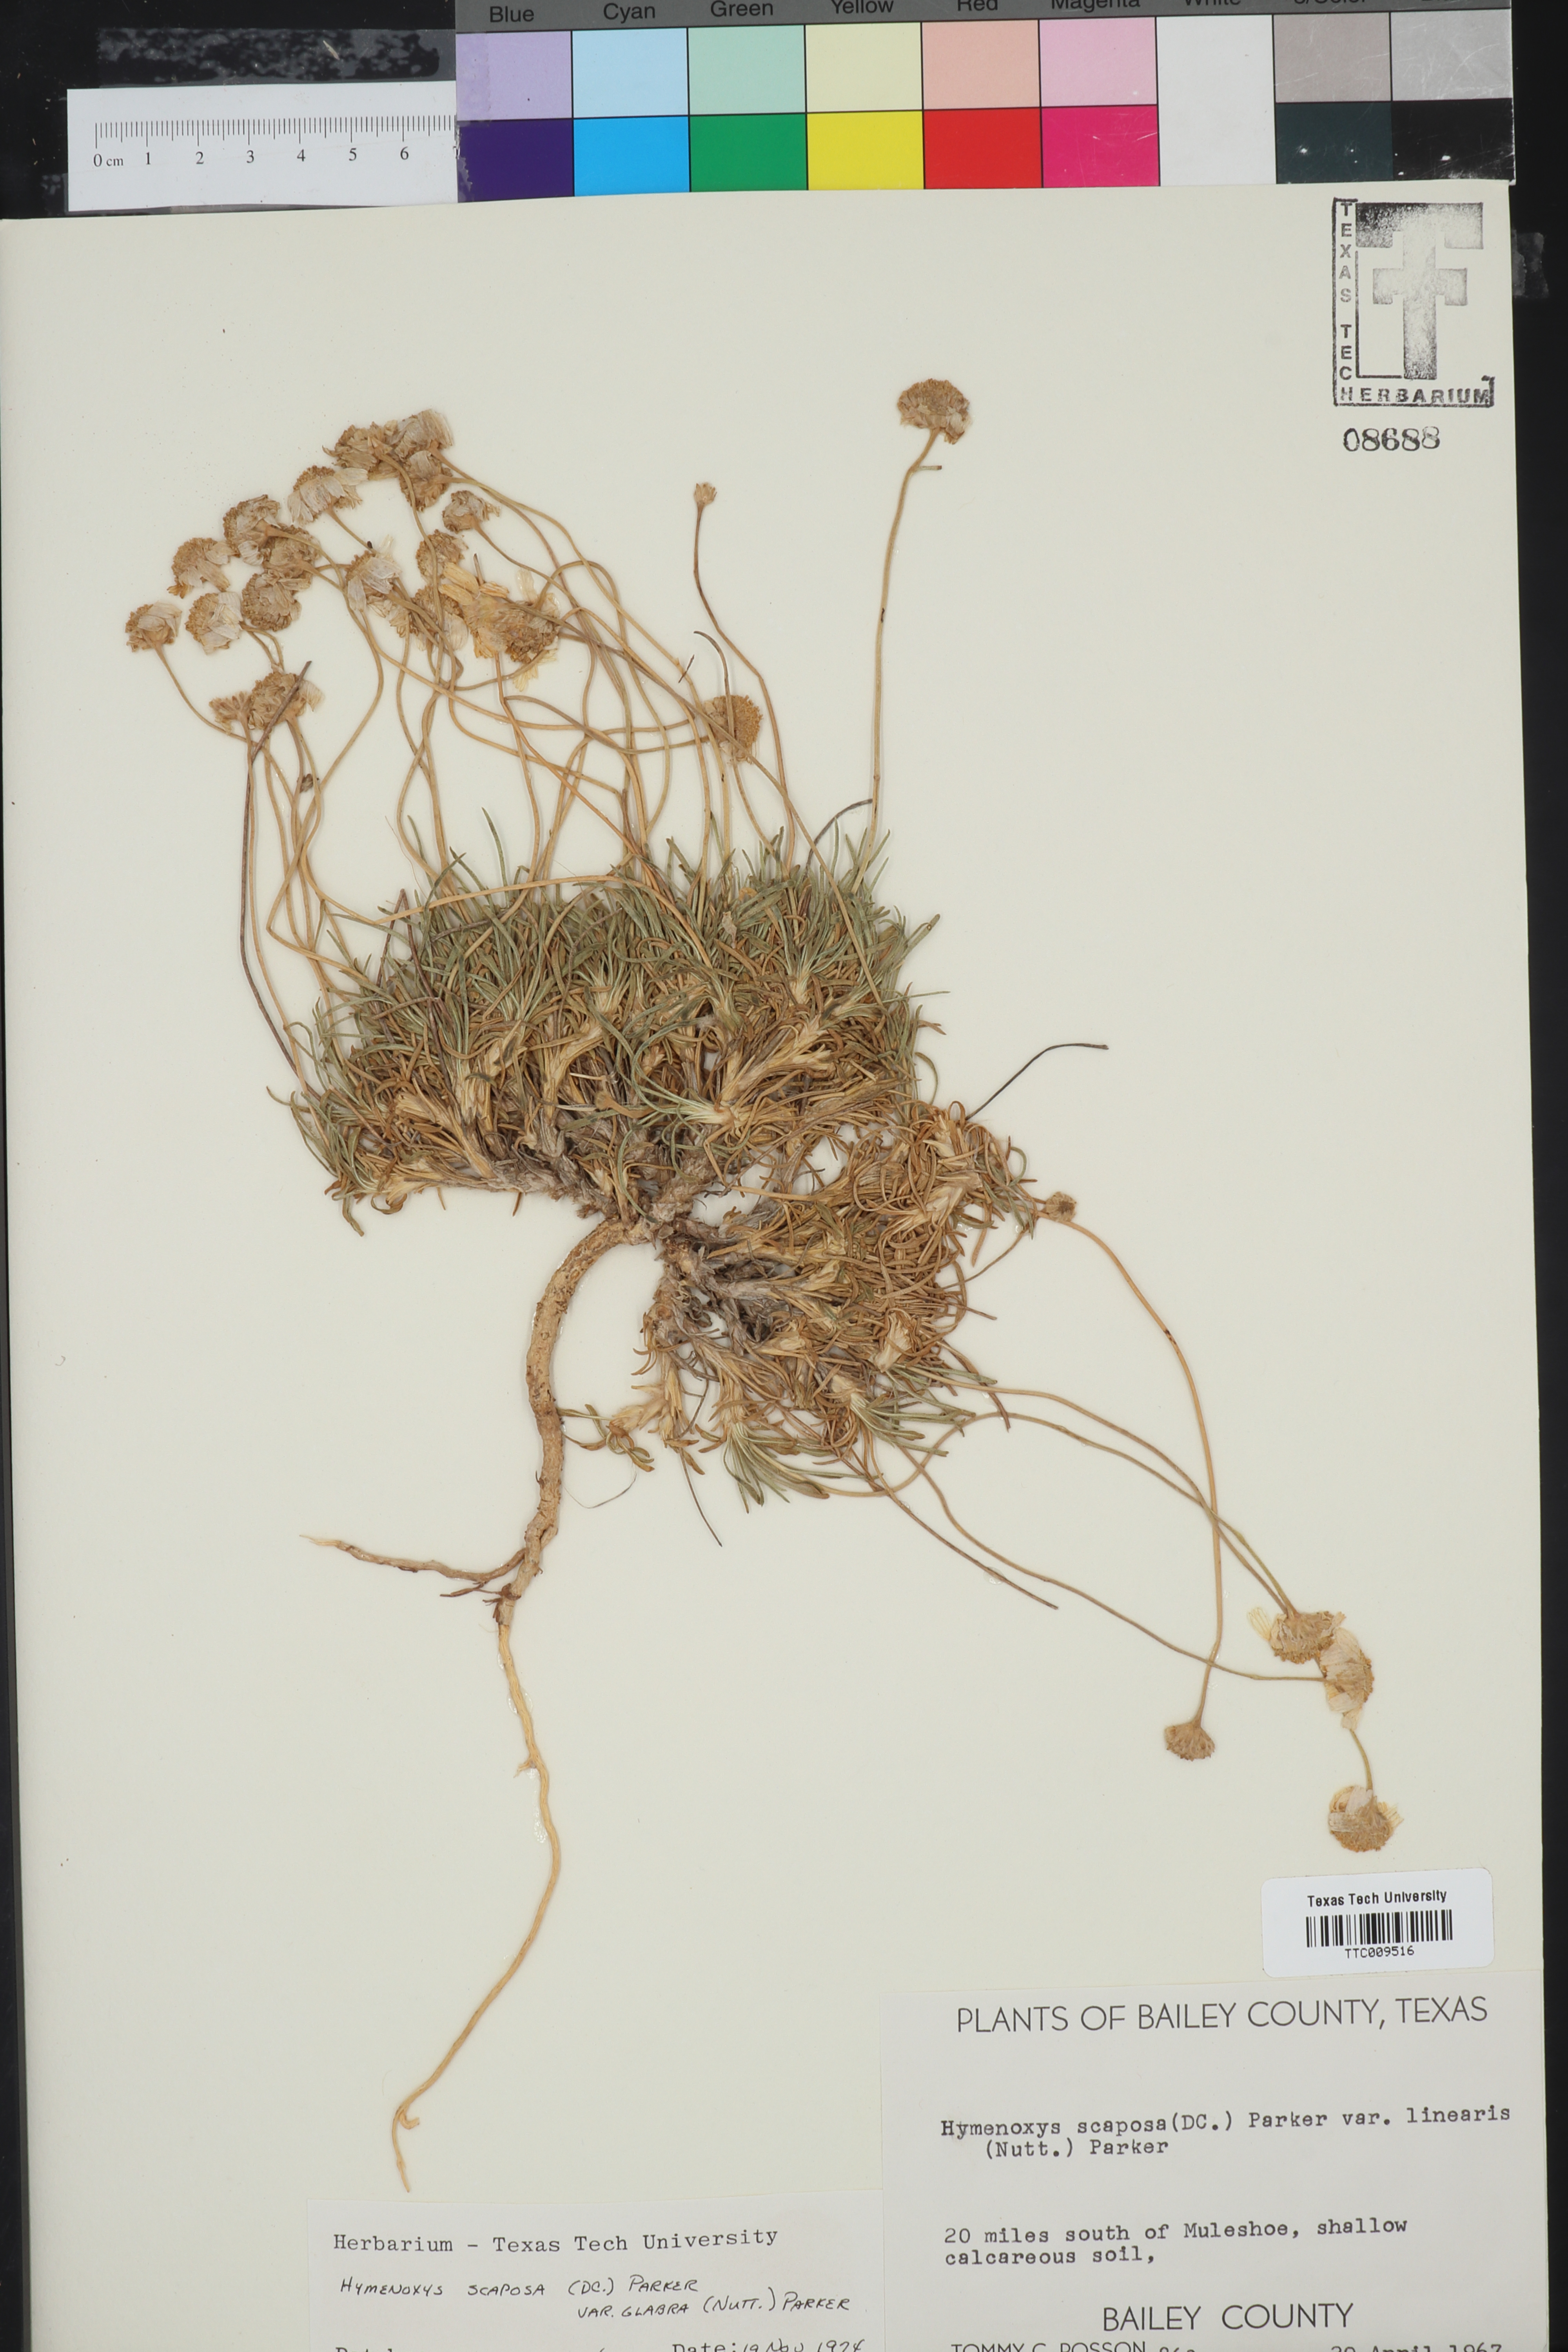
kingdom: Plantae
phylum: Tracheophyta
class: Magnoliopsida
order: Asterales
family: Asteraceae
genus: Tetraneuris
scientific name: Tetraneuris scaposa
